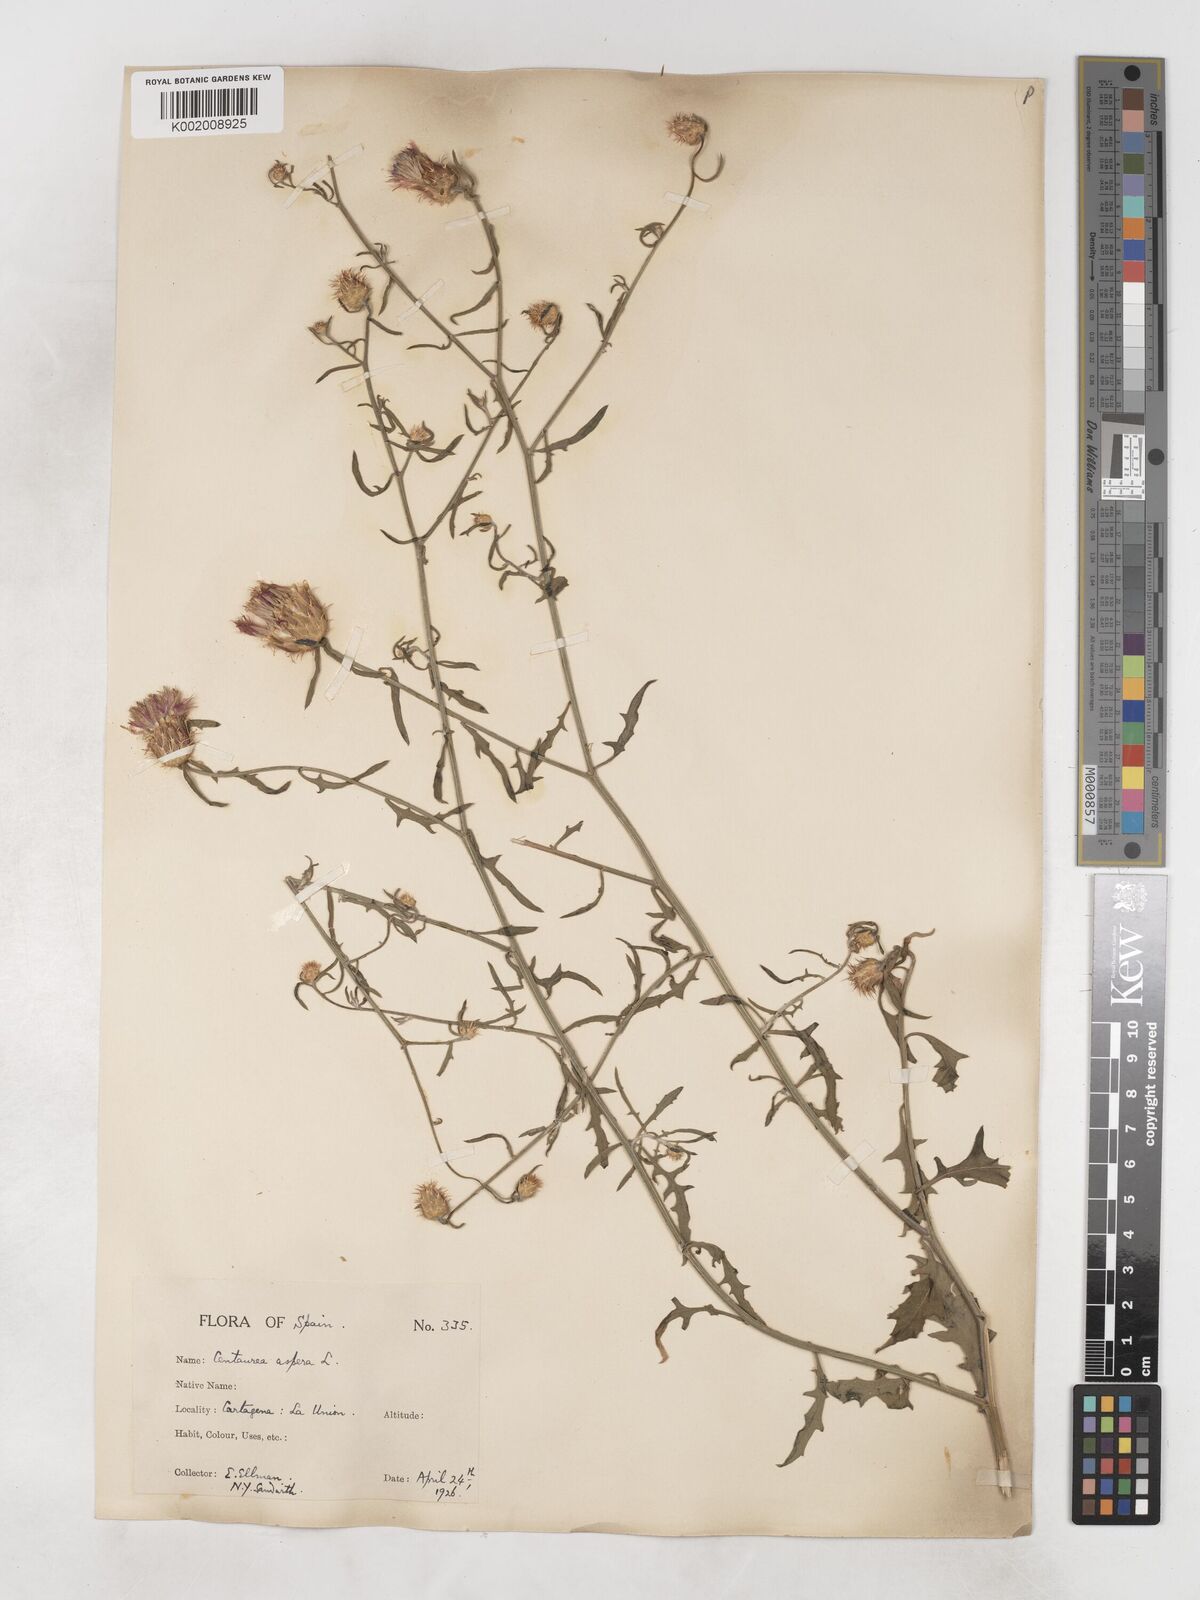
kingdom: Plantae
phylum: Tracheophyta
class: Magnoliopsida
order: Asterales
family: Asteraceae
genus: Centaurea
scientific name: Centaurea aspera
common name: Rough star-thistle
